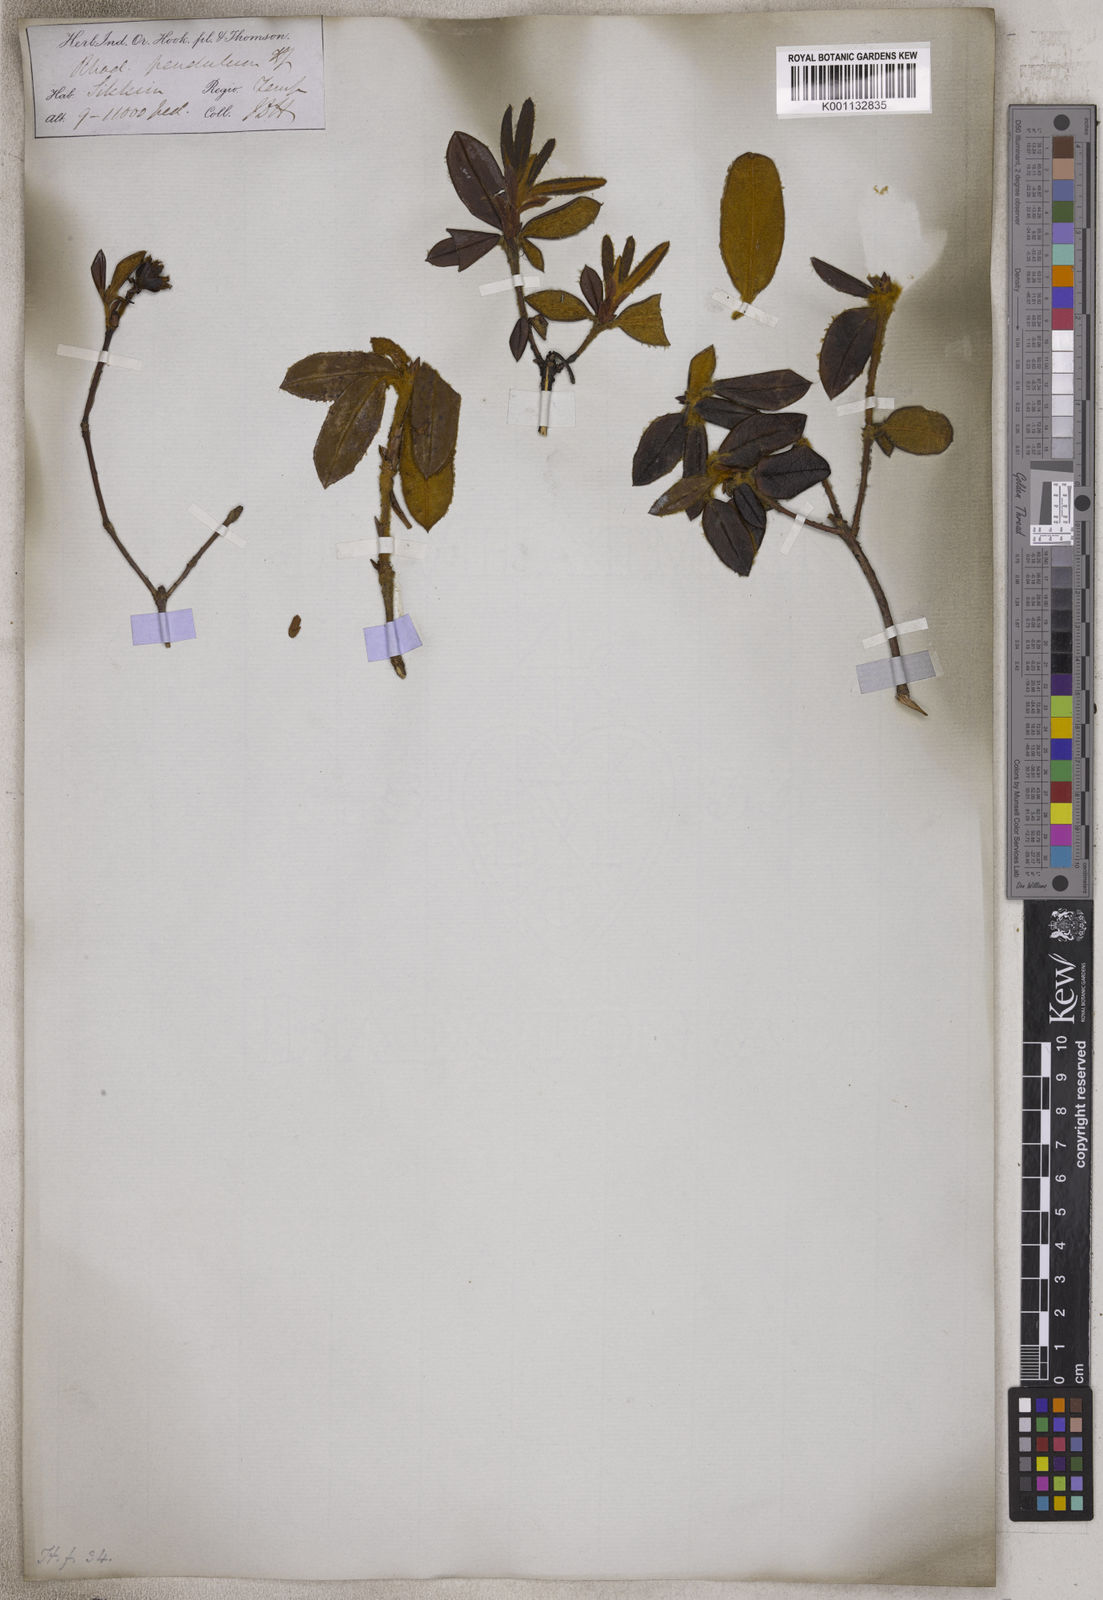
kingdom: Plantae
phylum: Tracheophyta
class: Magnoliopsida
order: Ericales
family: Ericaceae
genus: Rhododendron
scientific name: Rhododendron pendulum
